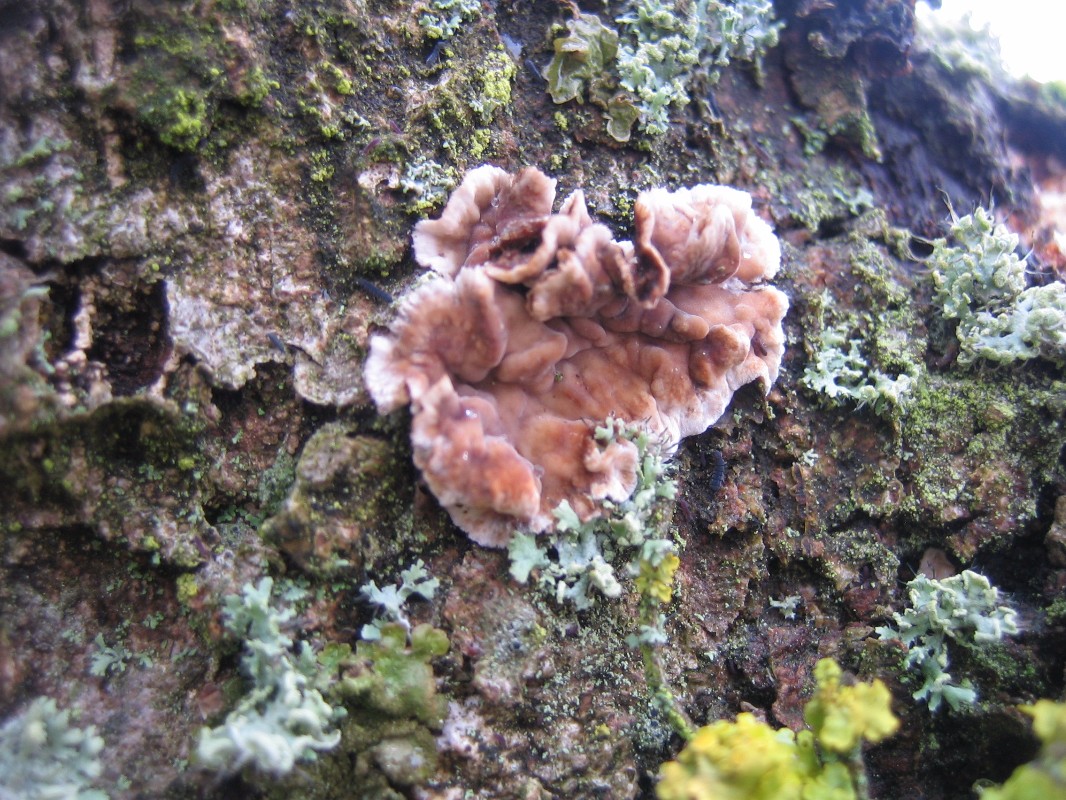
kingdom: Fungi
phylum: Basidiomycota
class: Agaricomycetes
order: Russulales
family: Peniophoraceae
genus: Peniophora
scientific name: Peniophora incarnata
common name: laksefarvet voksskind
